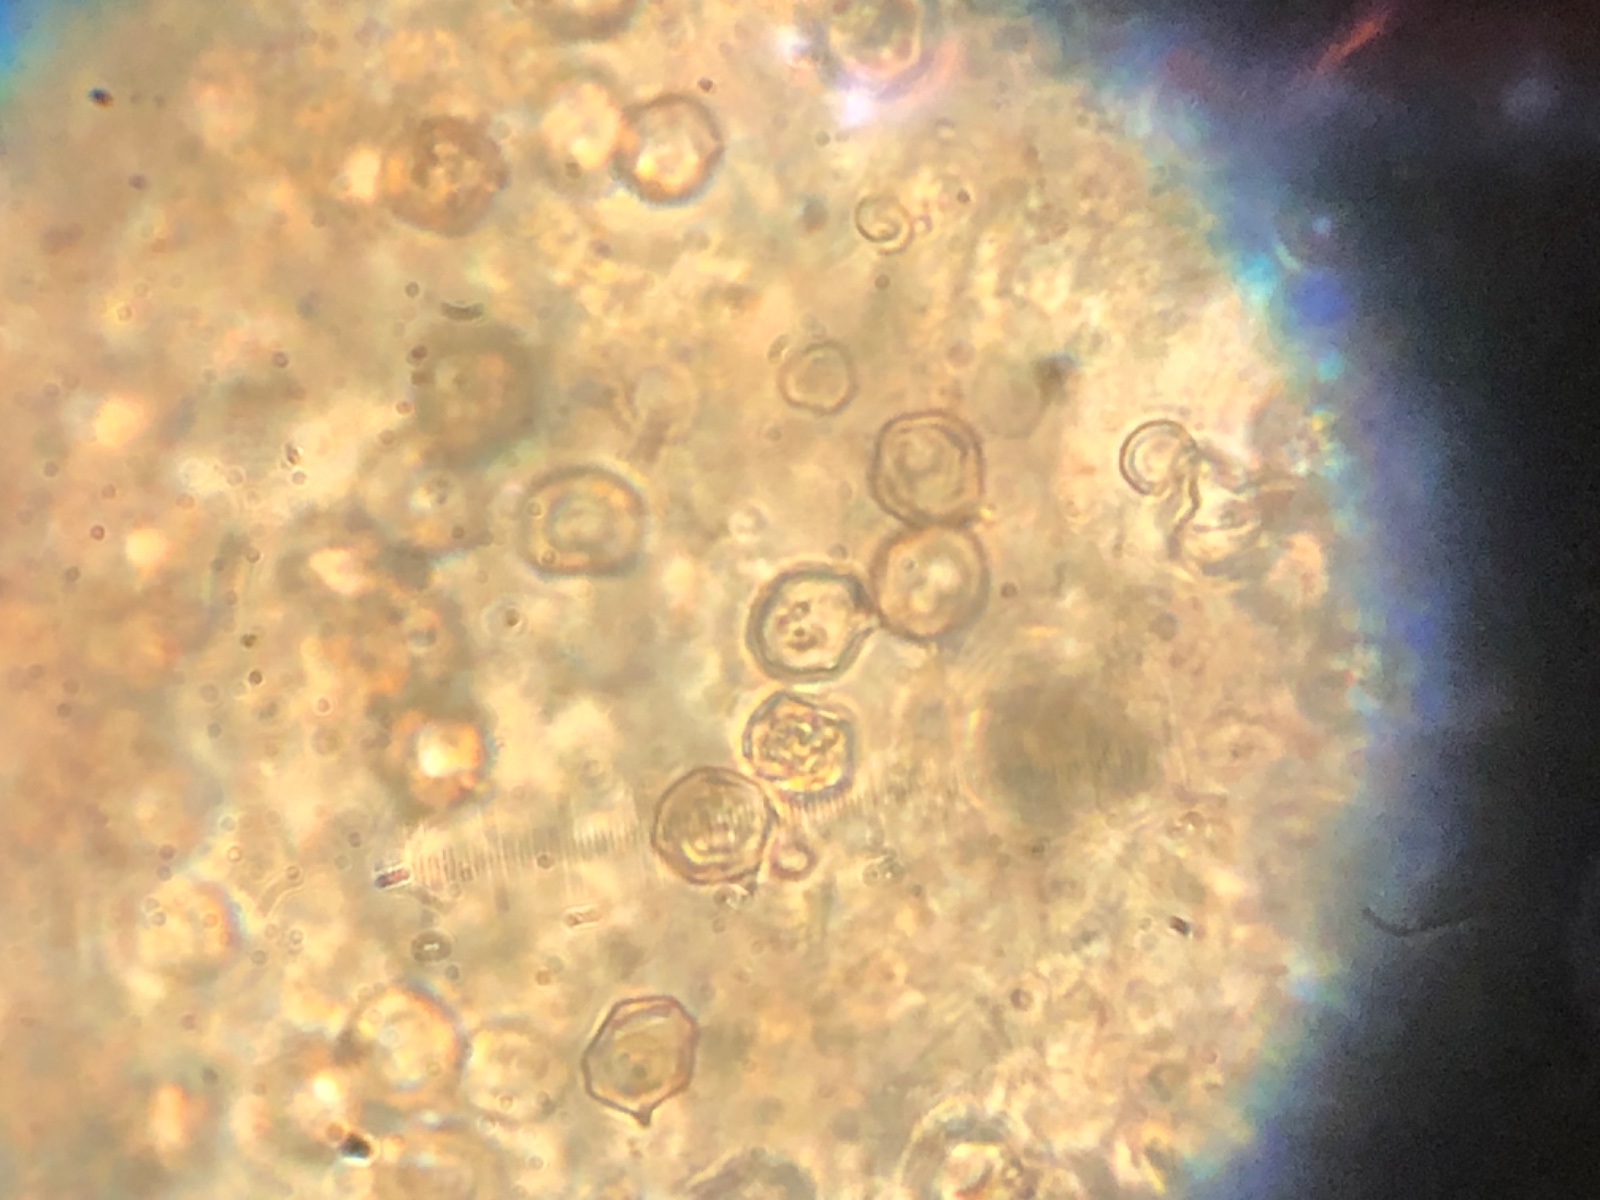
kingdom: Fungi
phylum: Basidiomycota
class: Agaricomycetes
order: Agaricales
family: Entolomataceae
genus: Entoloma
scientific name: Entoloma sericeum
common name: silkeglinsende rødblad
